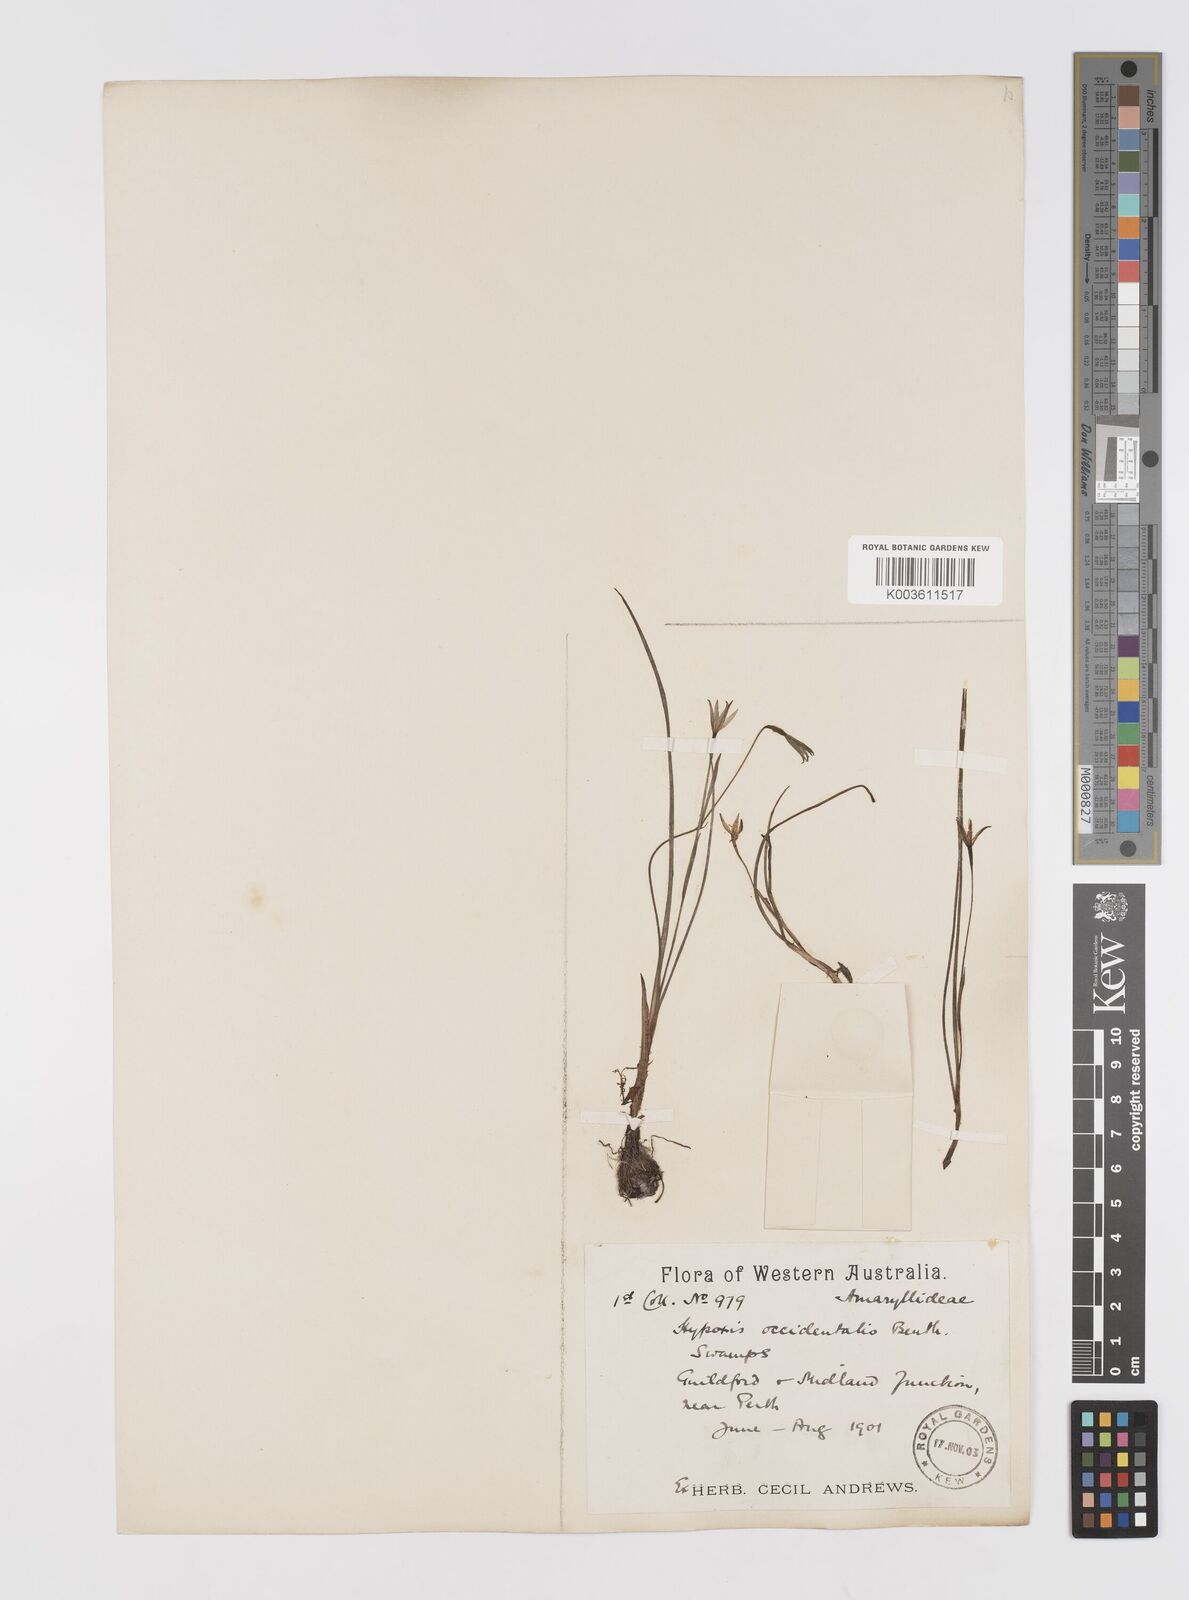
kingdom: Plantae
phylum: Tracheophyta
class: Liliopsida
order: Asparagales
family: Hypoxidaceae
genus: Pauridia
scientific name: Pauridia occidentalis
